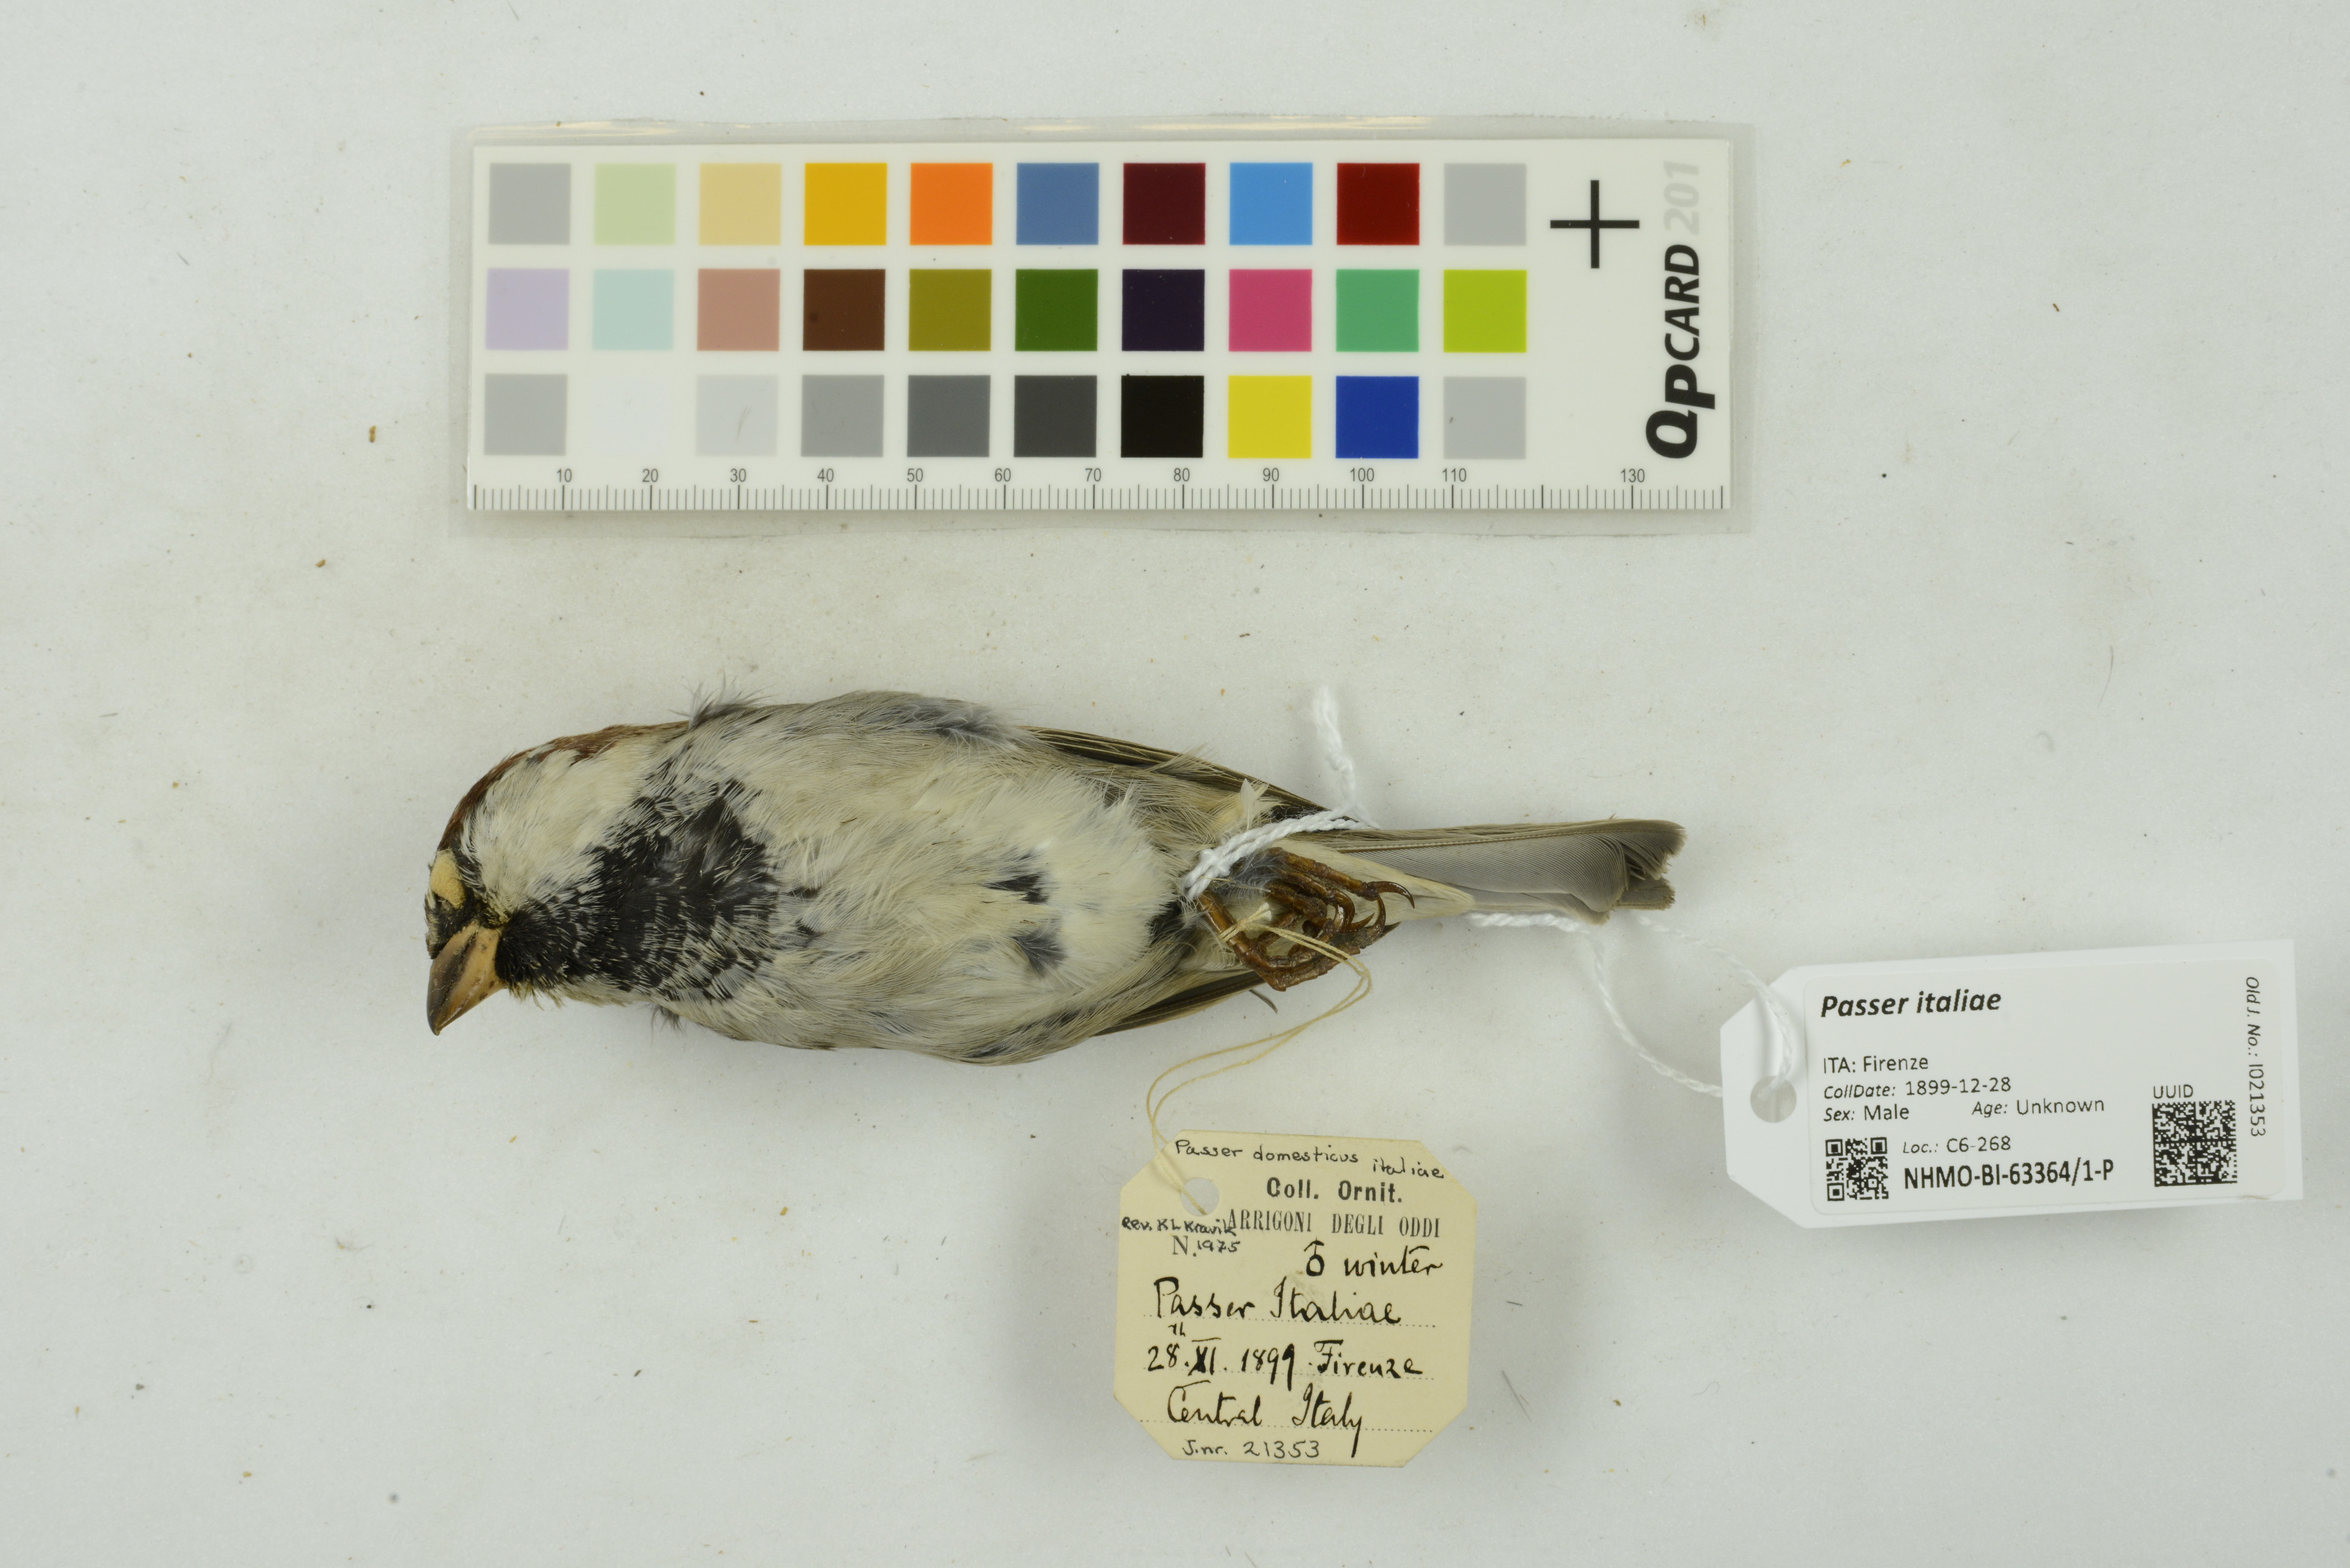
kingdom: Animalia
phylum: Chordata
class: Aves
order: Passeriformes
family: Passeridae
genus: Passer
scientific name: Passer italiae
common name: Italian sparrow
